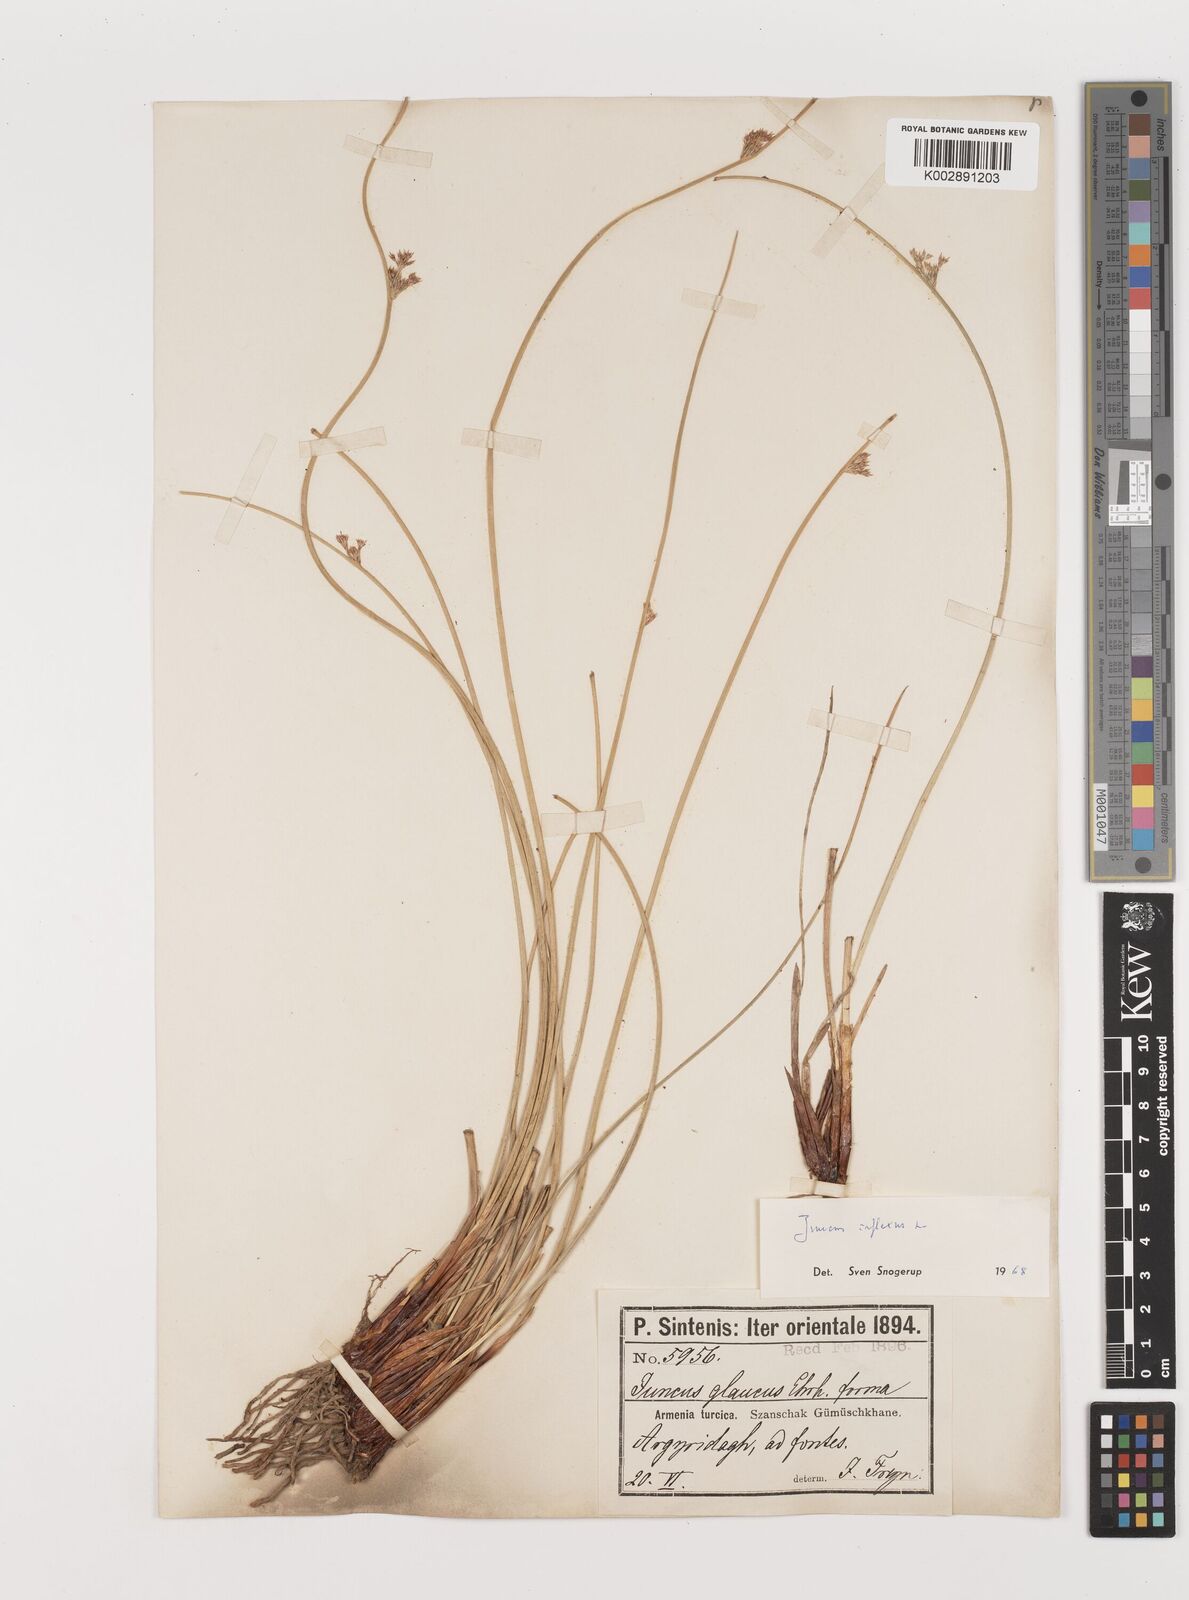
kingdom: Plantae
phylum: Tracheophyta
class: Liliopsida
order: Poales
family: Juncaceae
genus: Juncus
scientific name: Juncus inflexus
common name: Hard rush
